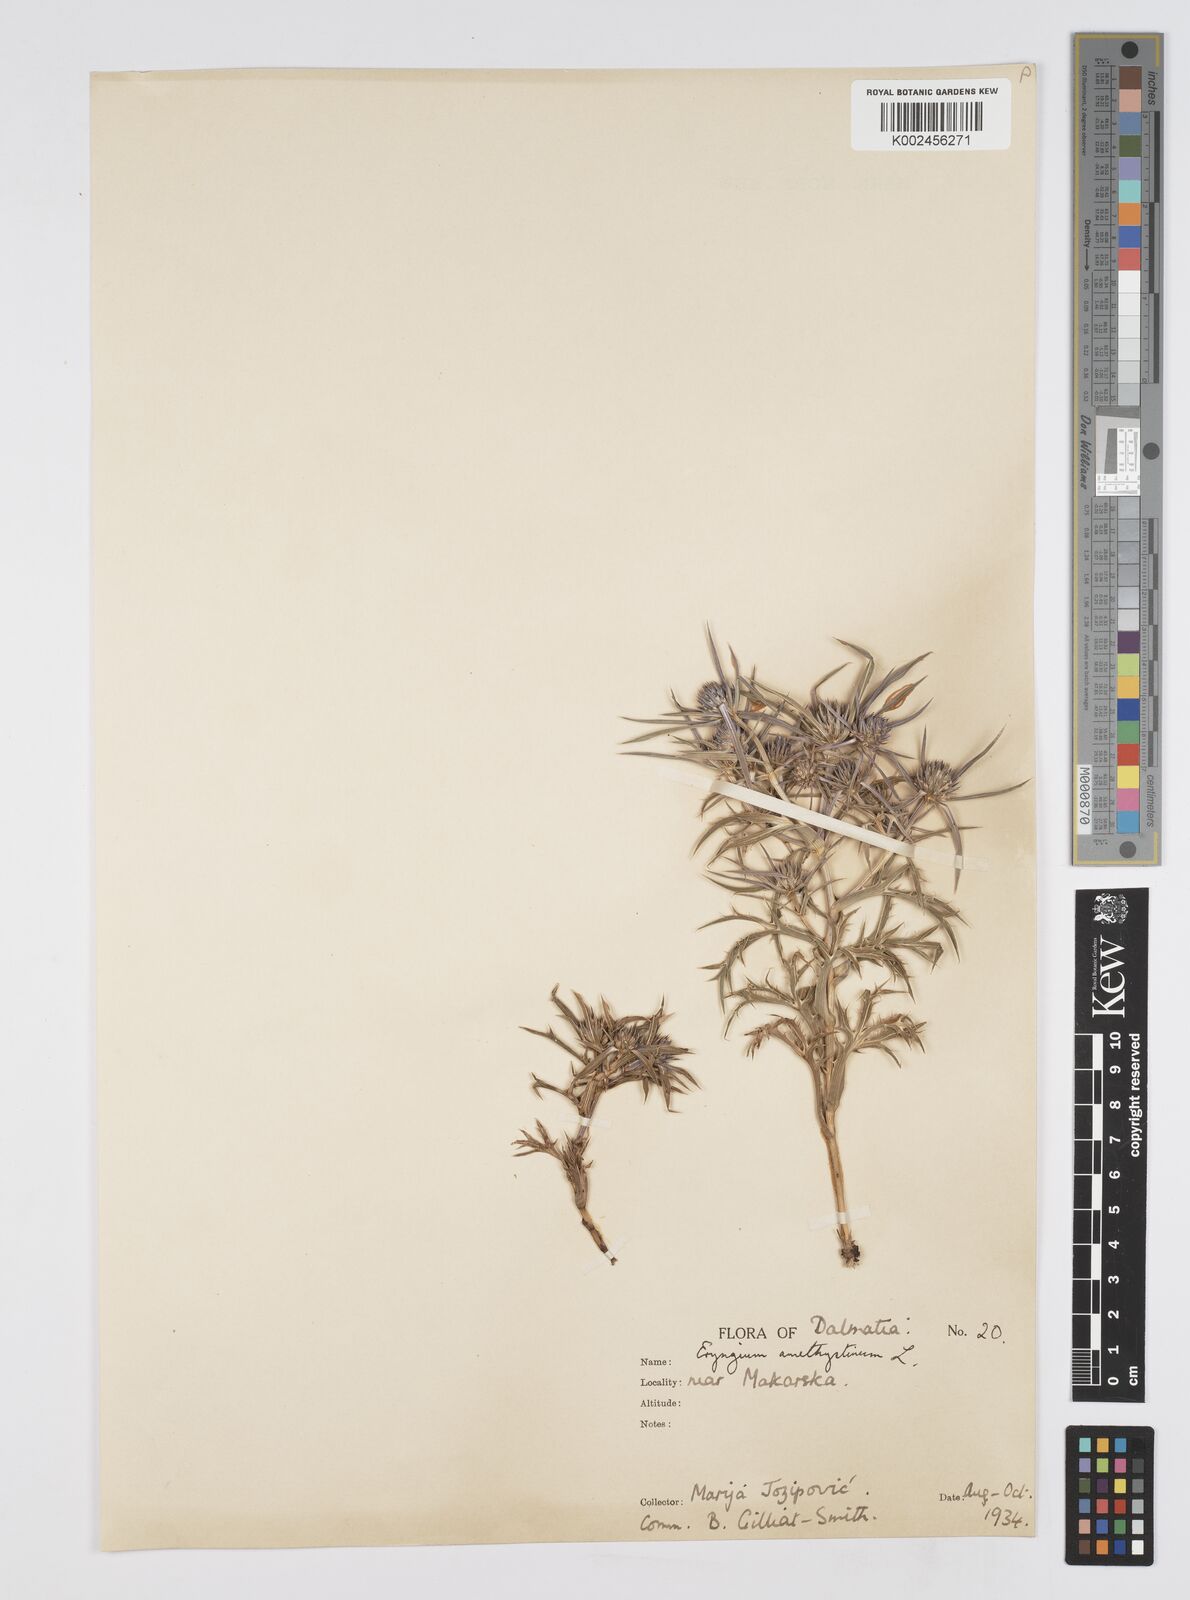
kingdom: Plantae
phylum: Tracheophyta
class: Magnoliopsida
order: Apiales
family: Apiaceae
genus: Eryngium
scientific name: Eryngium amethystinum
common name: Amethyst eryngo
